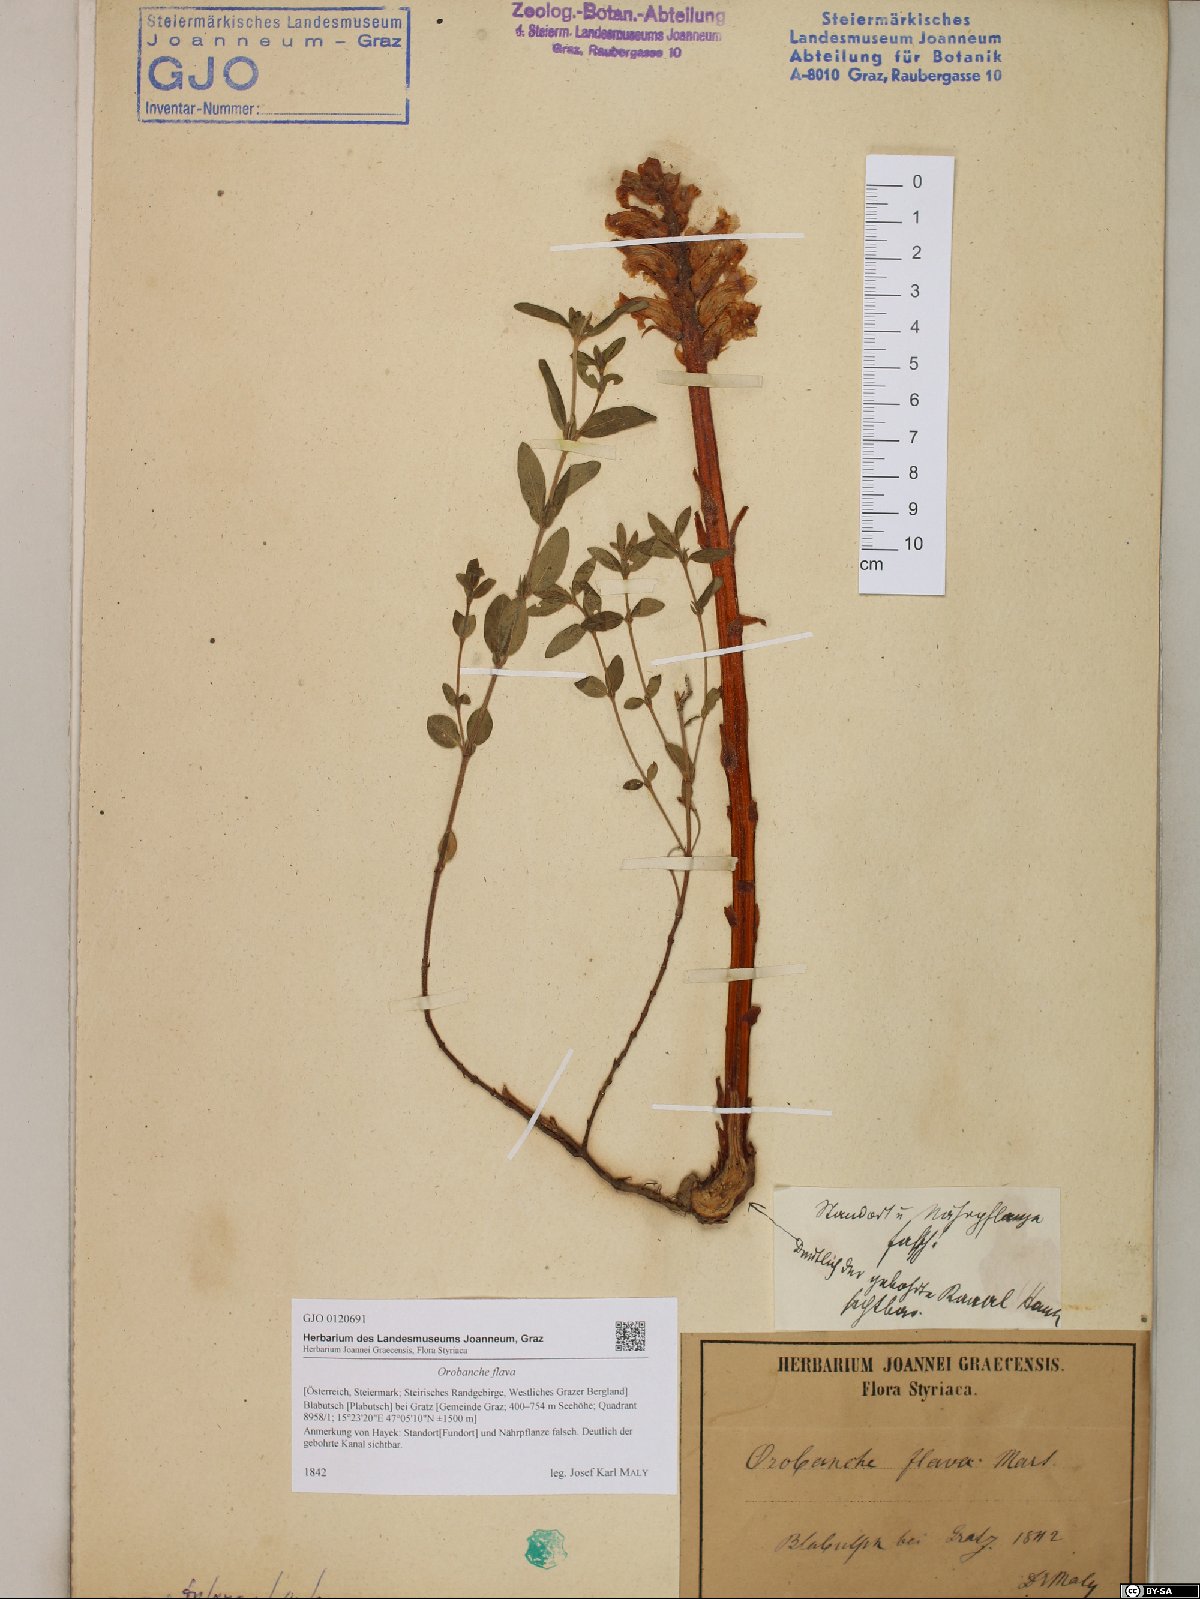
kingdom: Plantae
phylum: Tracheophyta
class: Magnoliopsida
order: Lamiales
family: Orobanchaceae
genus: Orobanche
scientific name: Orobanche flava
